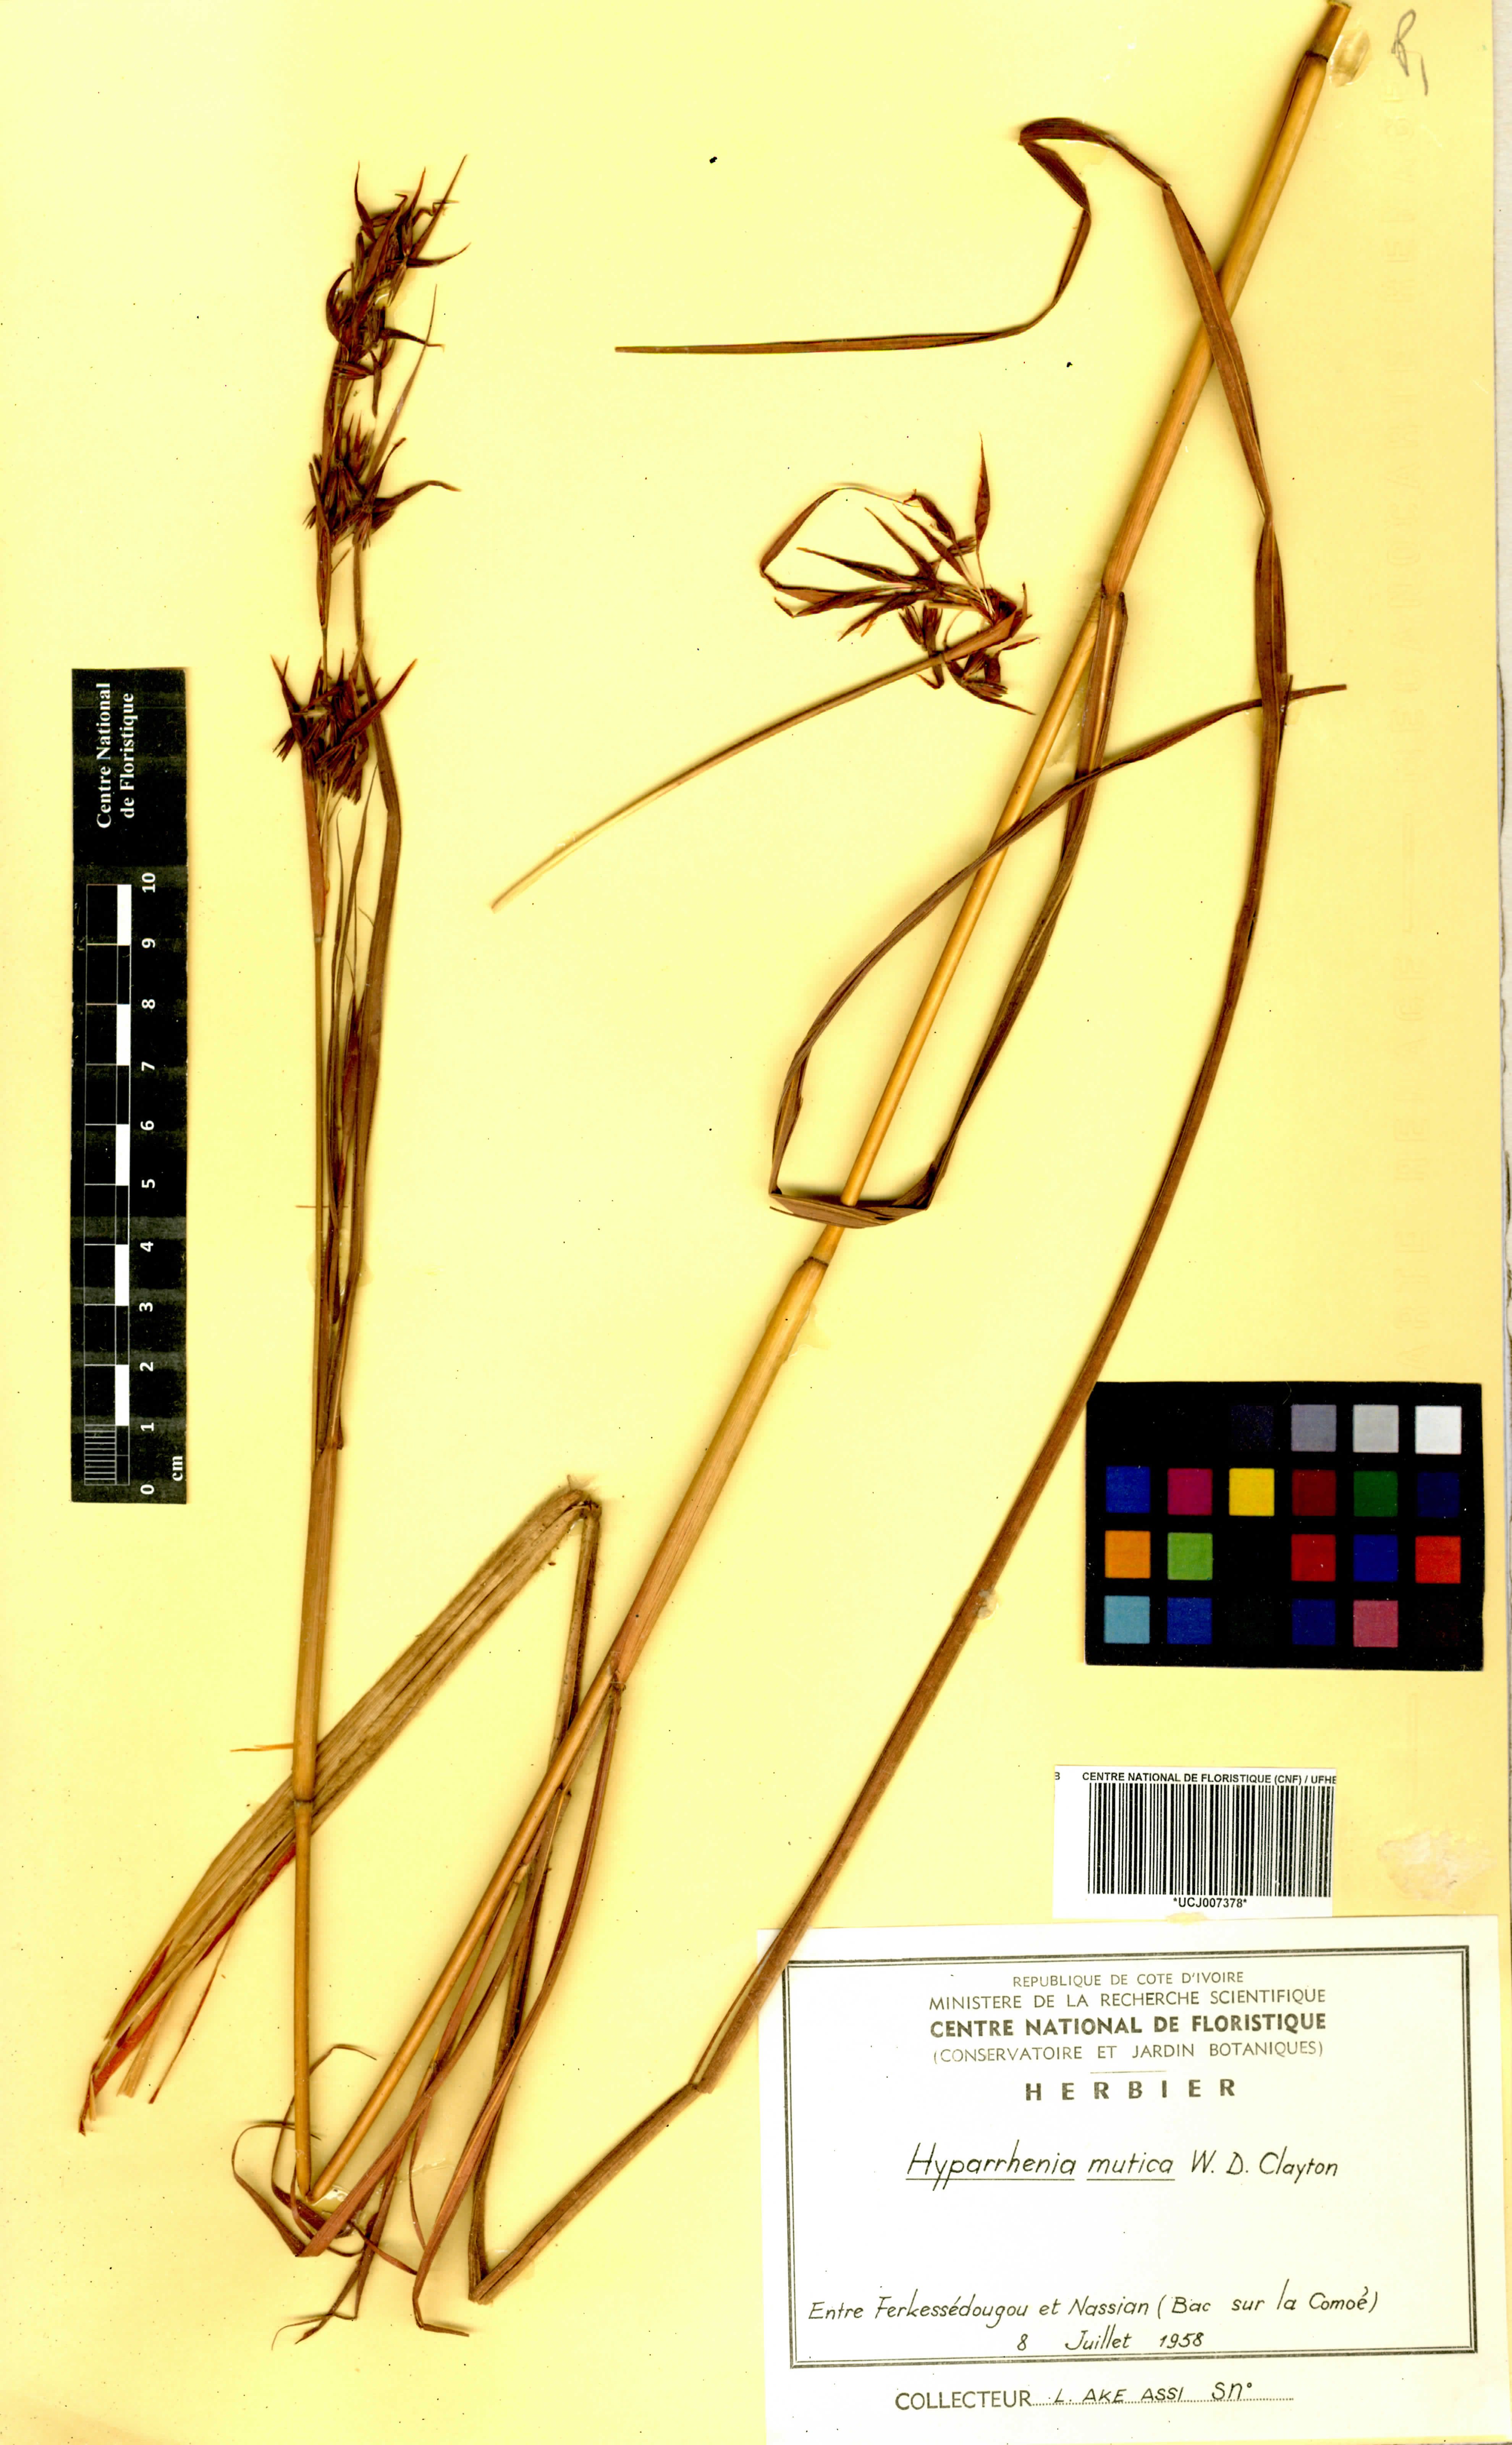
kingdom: Plantae
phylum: Tracheophyta
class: Liliopsida
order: Poales
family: Poaceae
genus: Hyparrhenia
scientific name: Hyparrhenia diplandra
